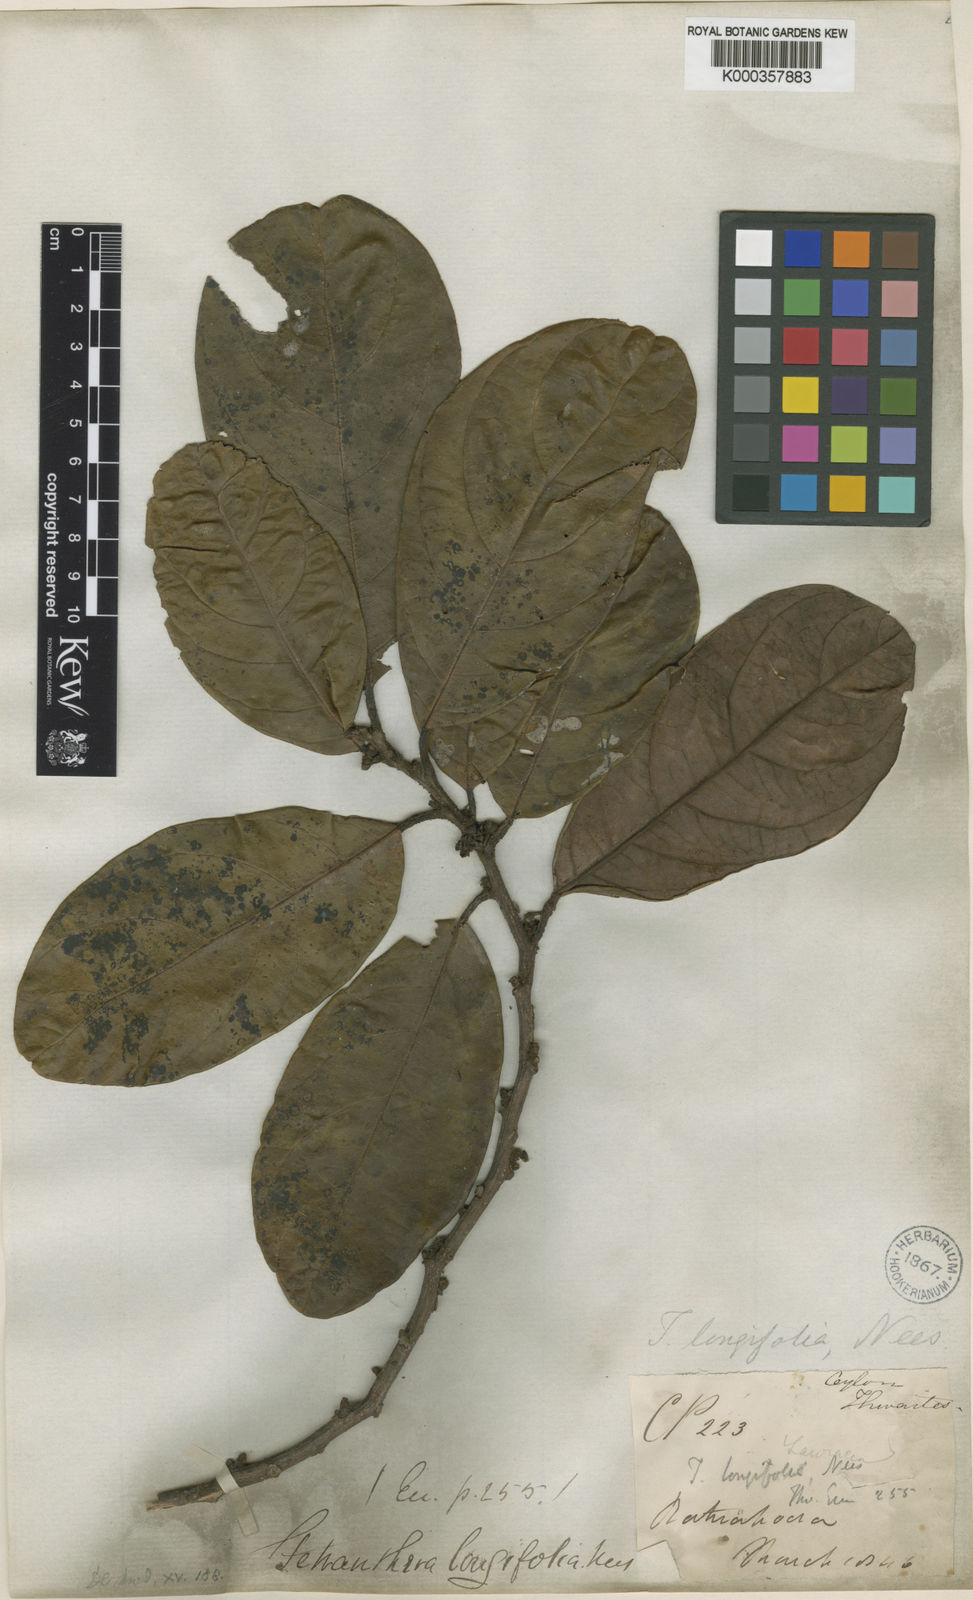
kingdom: Plantae
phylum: Tracheophyta
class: Magnoliopsida
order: Laurales
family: Lauraceae
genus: Litsea
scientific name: Litsea ligustrina
